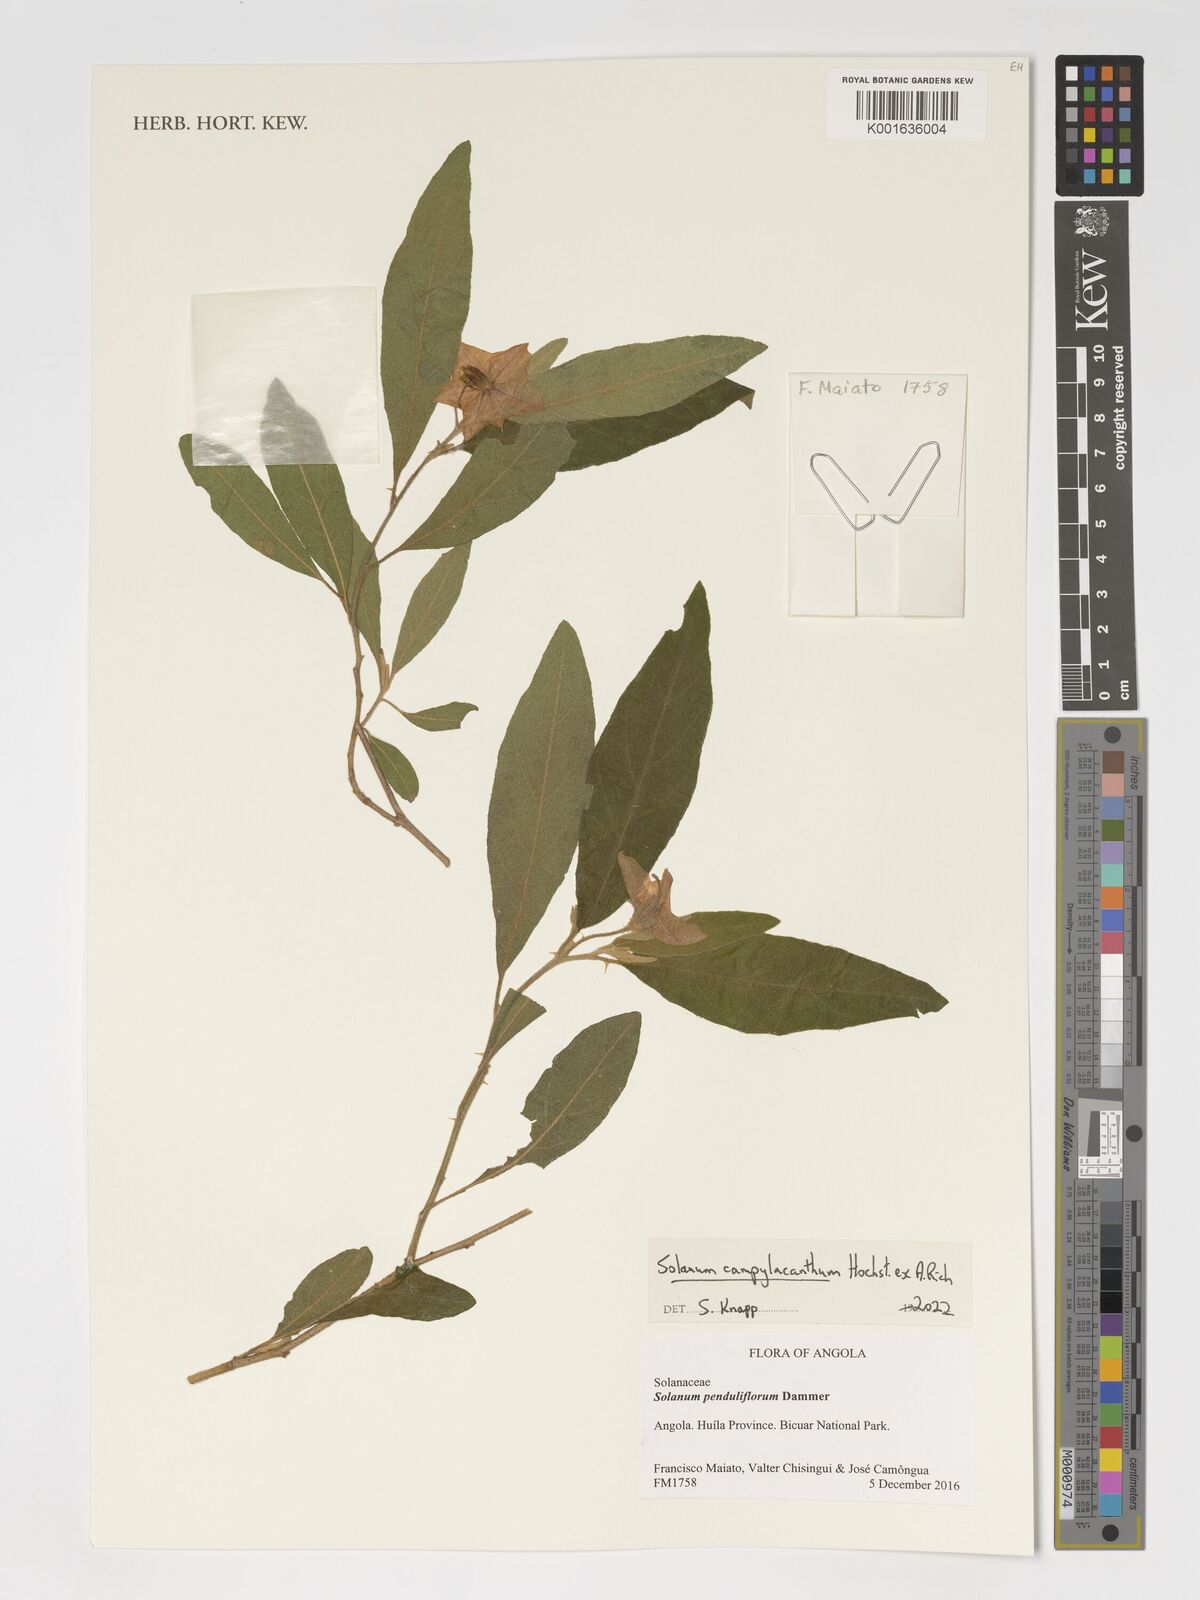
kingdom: Plantae
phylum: Tracheophyta
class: Magnoliopsida
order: Solanales
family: Solanaceae
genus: Solanum
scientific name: Solanum campylacanthum
